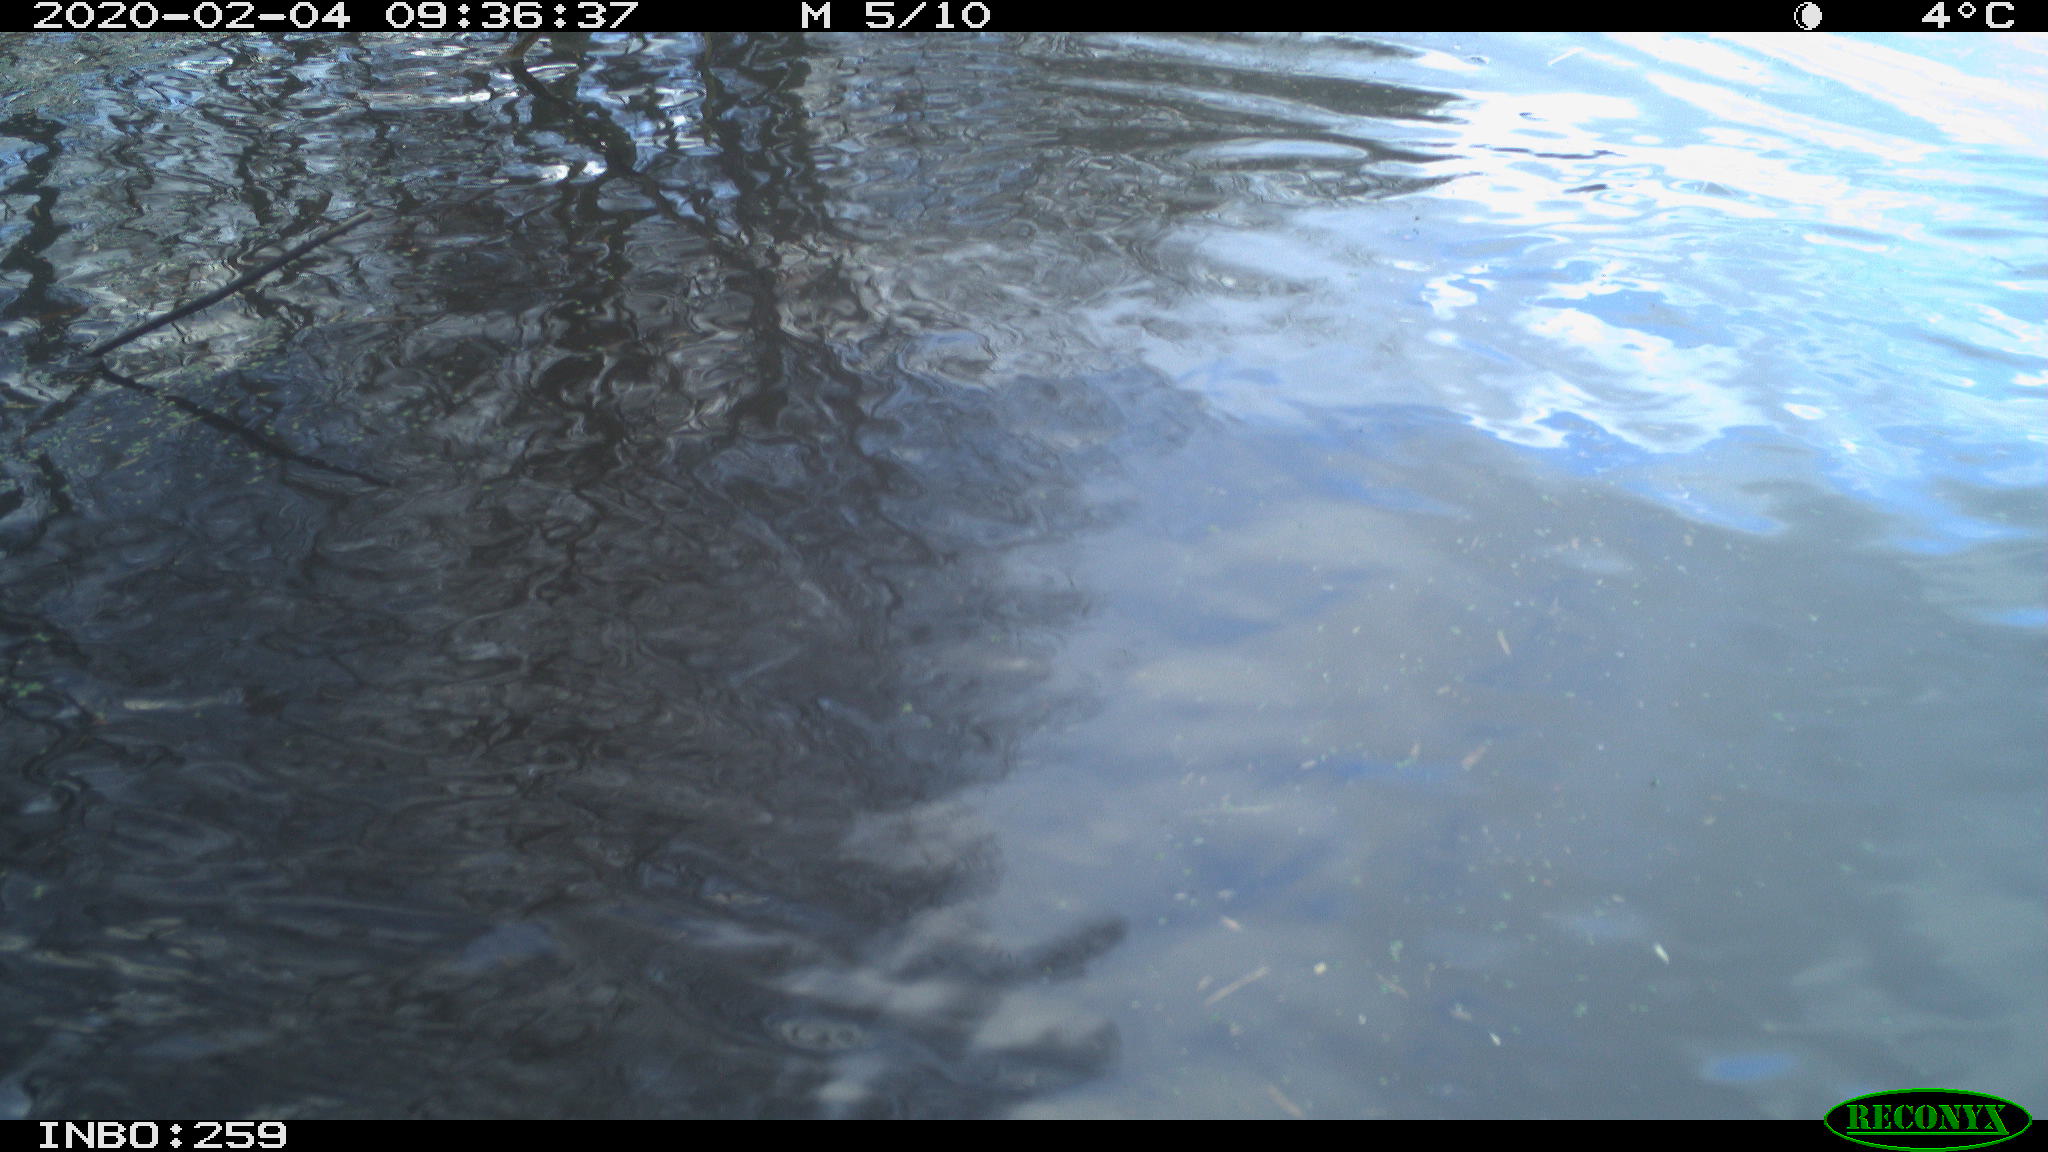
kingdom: Animalia
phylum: Chordata
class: Aves
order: Gruiformes
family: Rallidae
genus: Gallinula
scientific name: Gallinula chloropus
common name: Common moorhen
